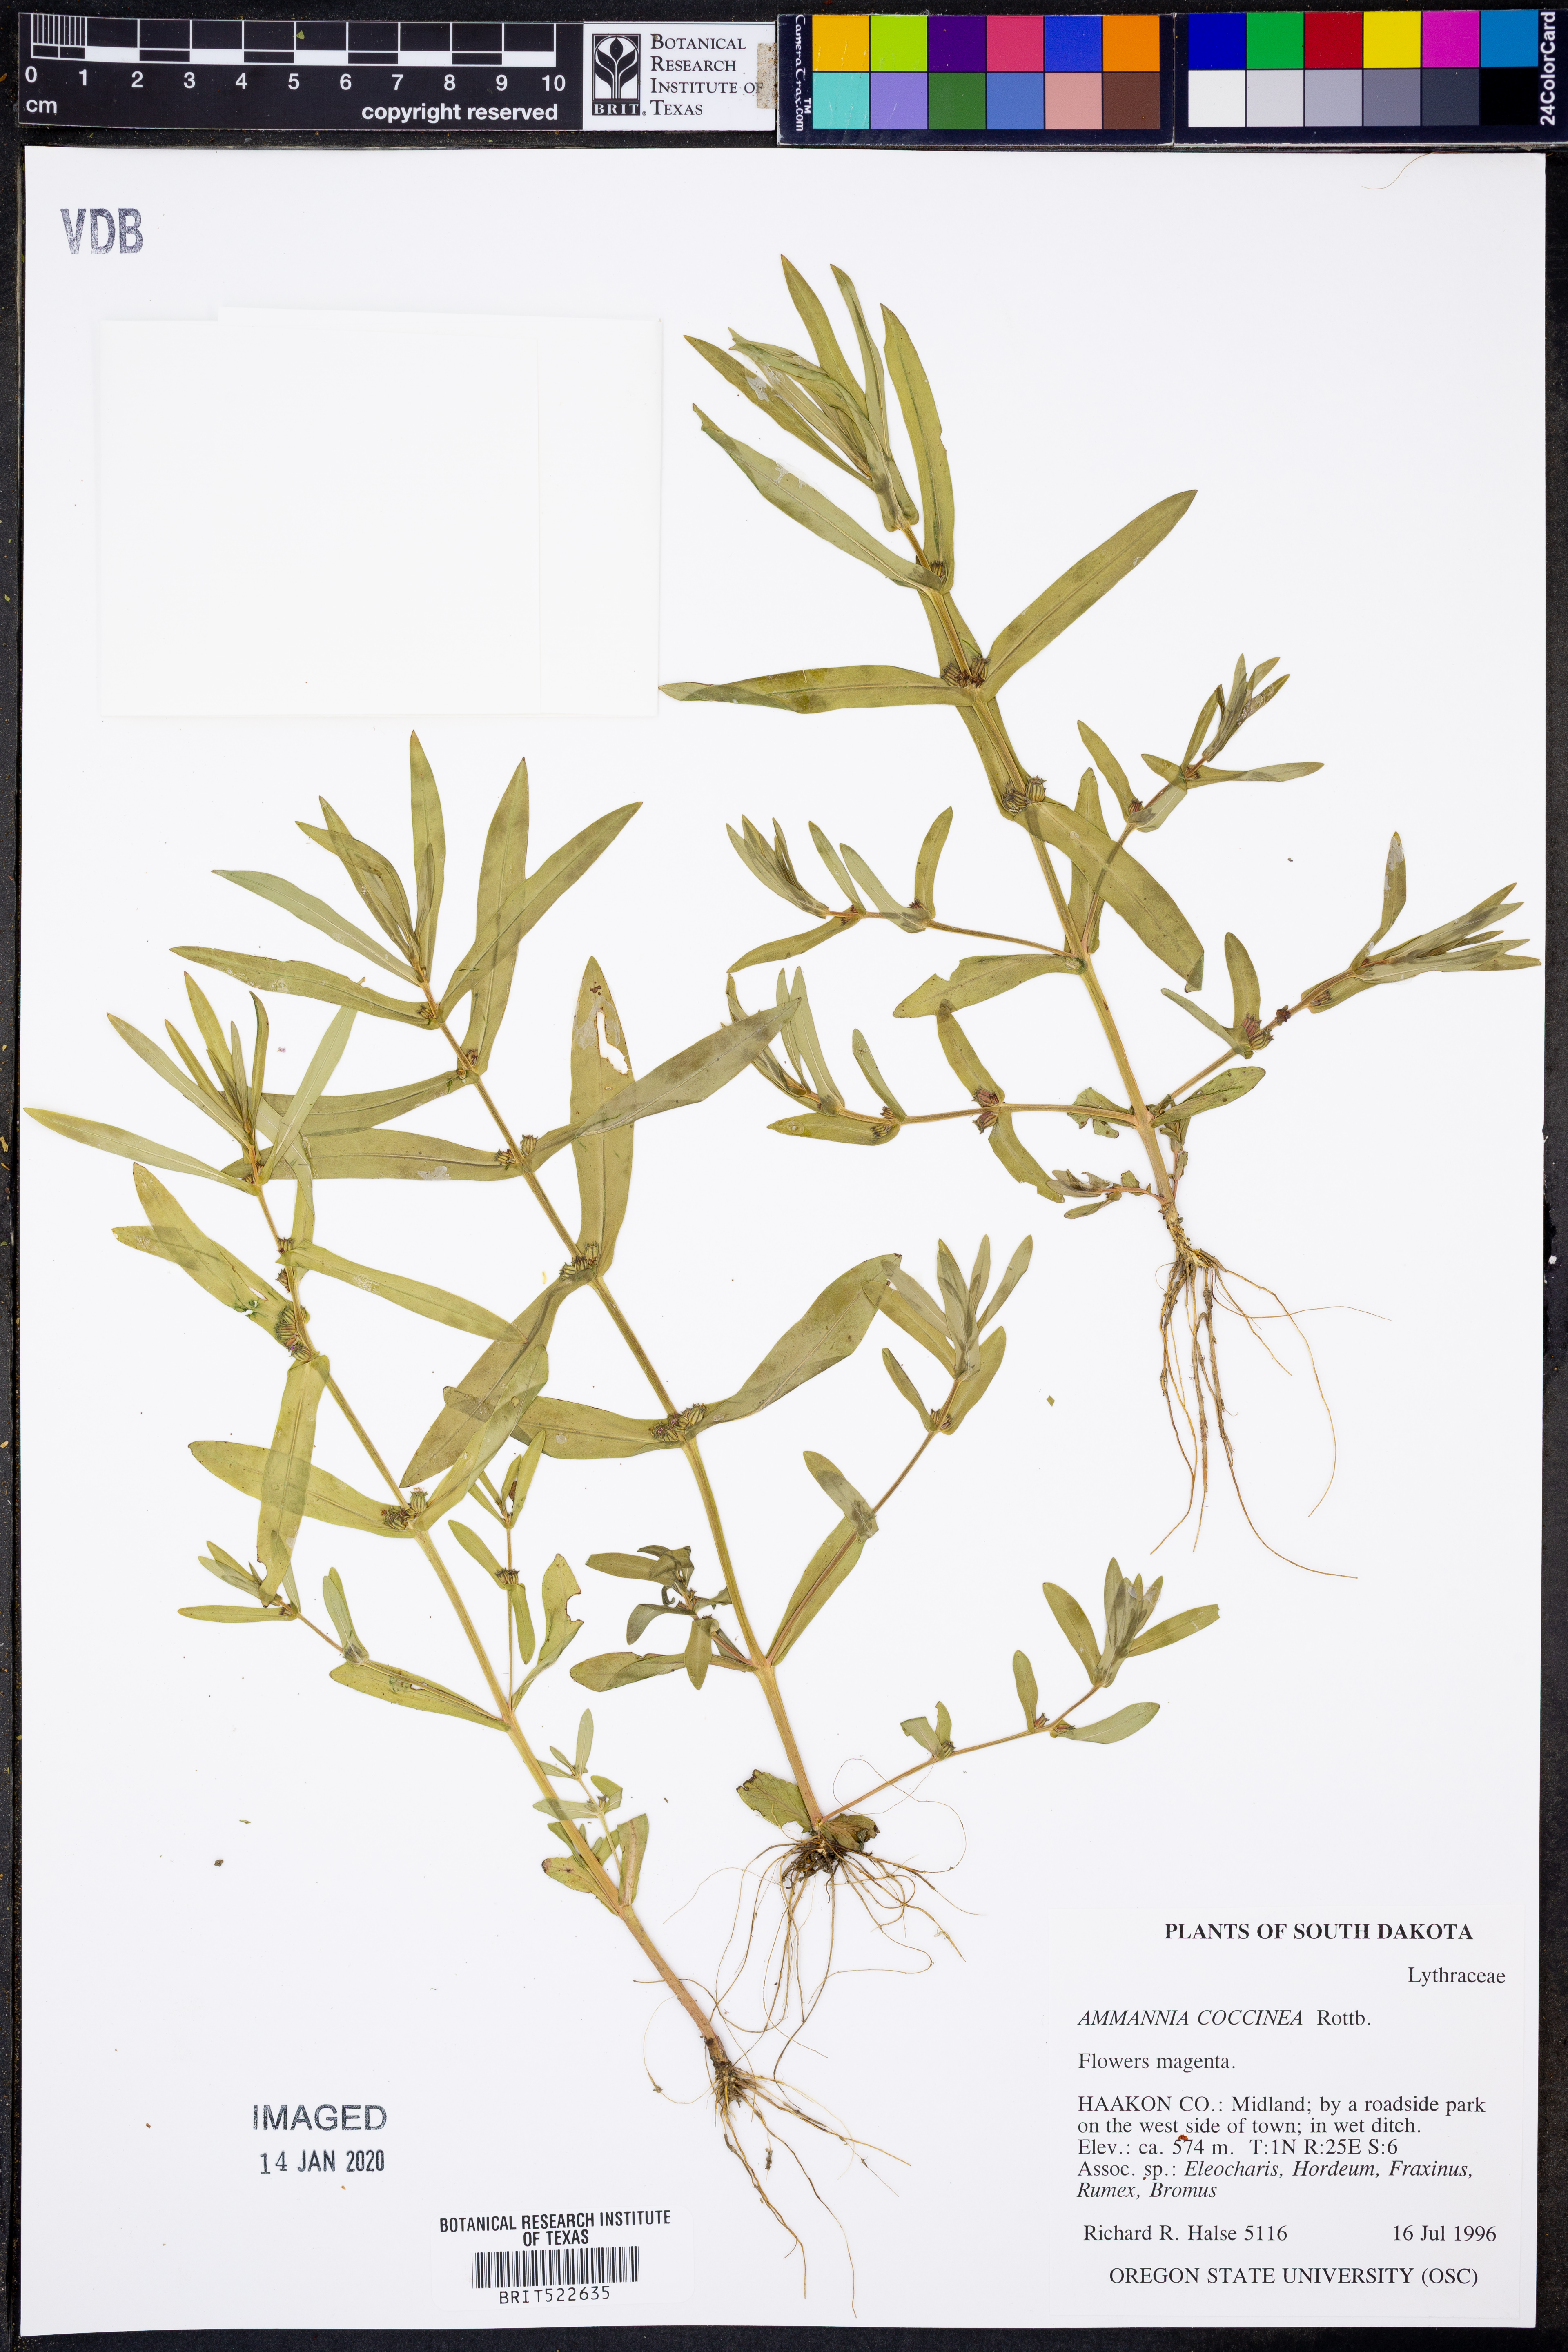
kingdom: Plantae
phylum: Tracheophyta
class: Magnoliopsida
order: Myrtales
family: Lythraceae
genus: Ammannia
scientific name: Ammannia coccinea
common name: Valley redstem
